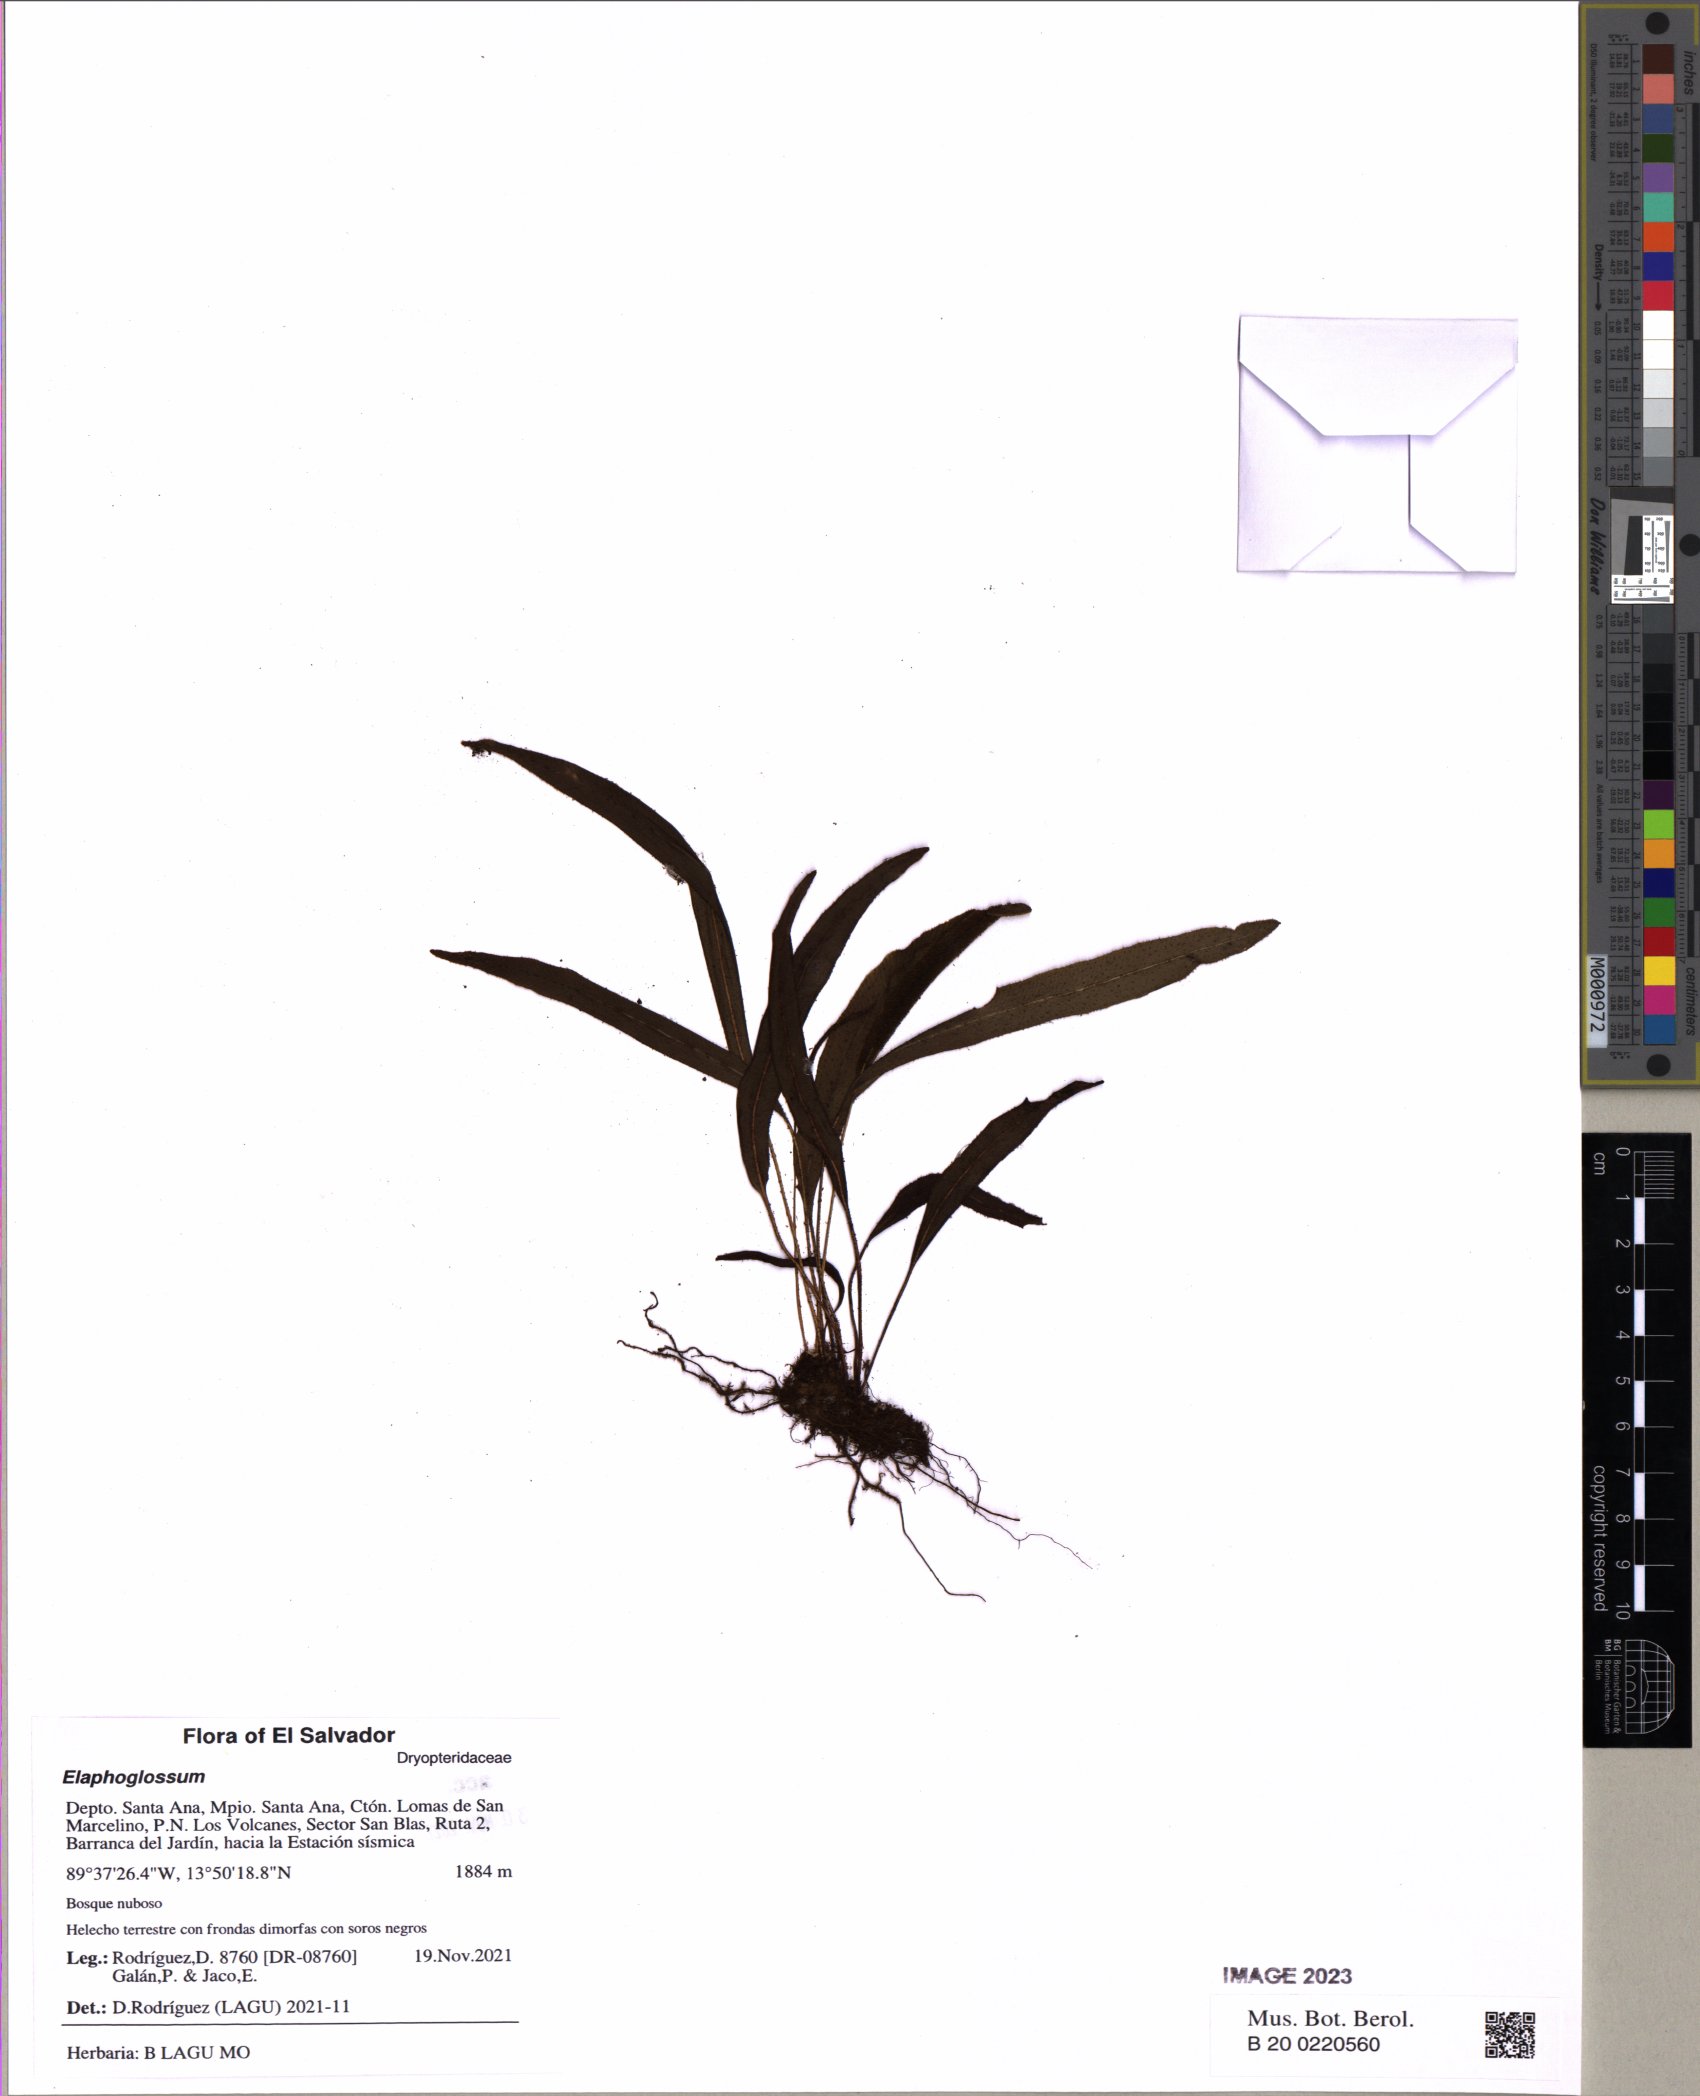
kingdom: Plantae
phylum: Tracheophyta
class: Polypodiopsida
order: Polypodiales
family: Dryopteridaceae
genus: Elaphoglossum
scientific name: Elaphoglossum
